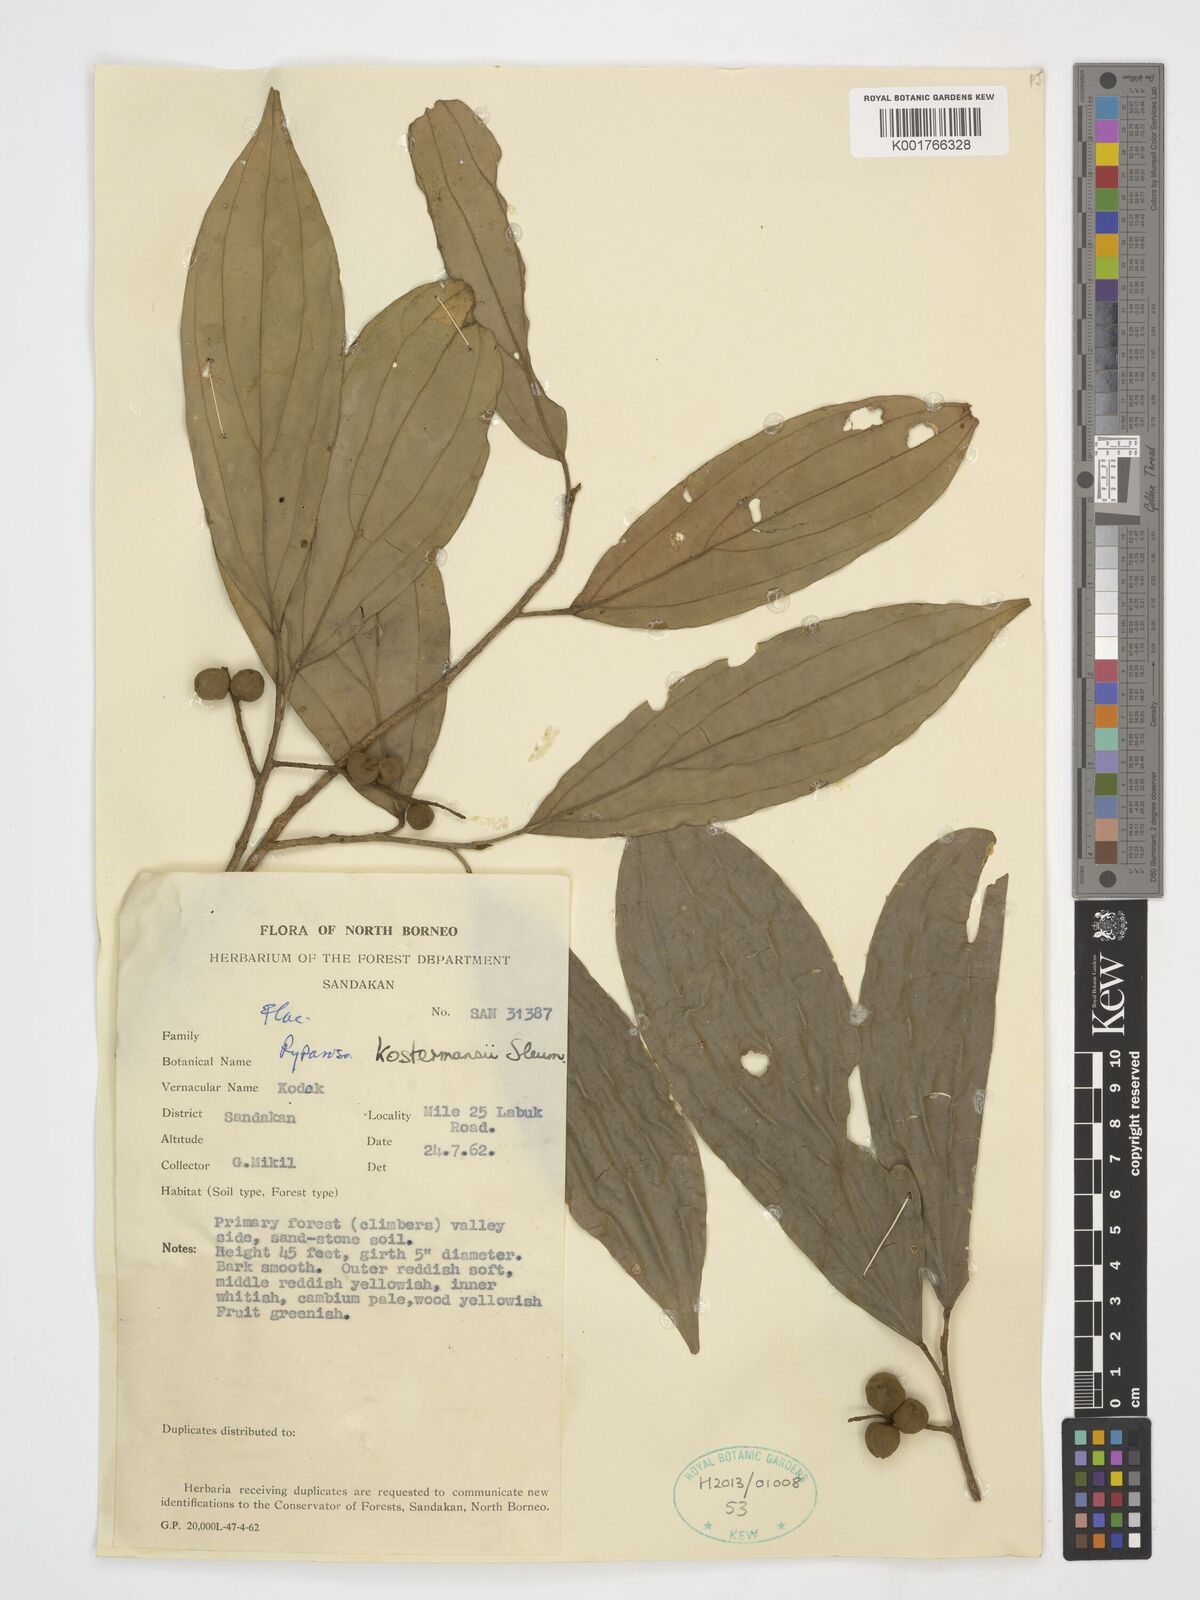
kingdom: Plantae
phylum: Tracheophyta
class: Magnoliopsida
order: Malpighiales
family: Achariaceae
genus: Ryparosa
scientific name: Ryparosa kostermansii
